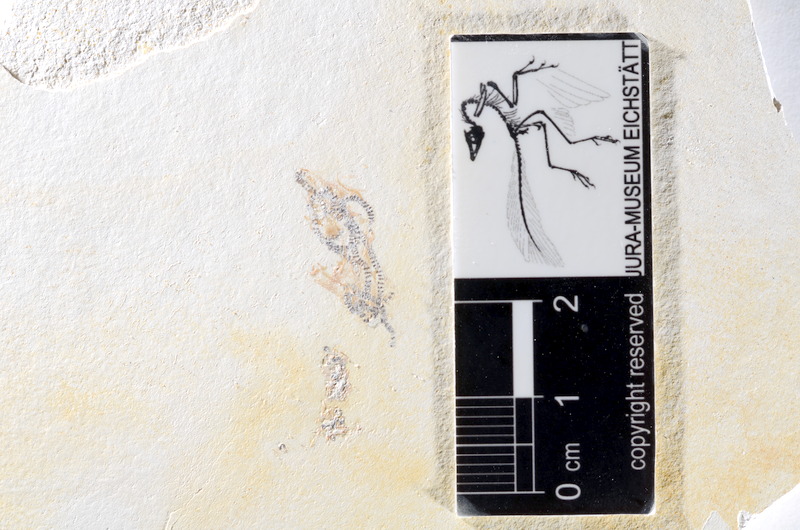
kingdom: Animalia
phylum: Chordata
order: Salmoniformes
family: Orthogonikleithridae
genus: Orthogonikleithrus
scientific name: Orthogonikleithrus hoelli
